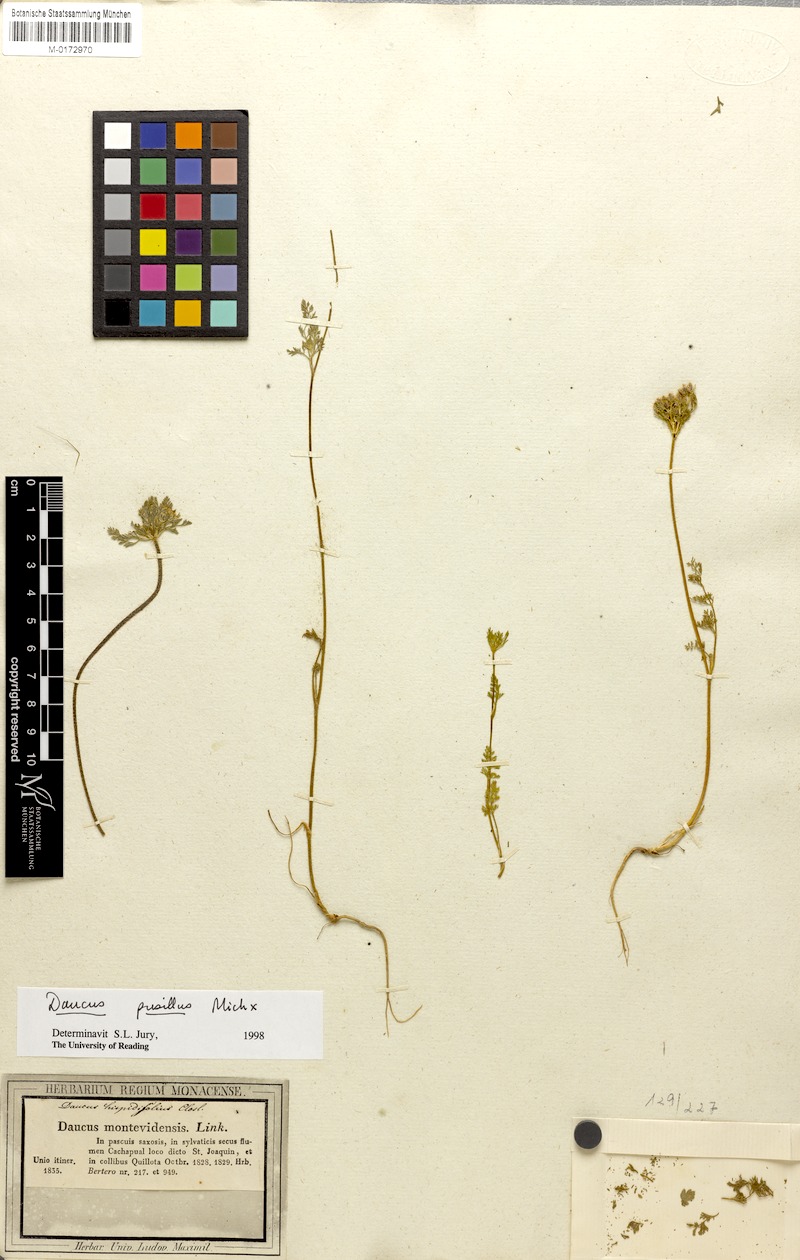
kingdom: Plantae
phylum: Tracheophyta
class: Magnoliopsida
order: Apiales
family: Apiaceae
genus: Daucus
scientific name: Daucus pusillus
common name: Southwest wild carrot
